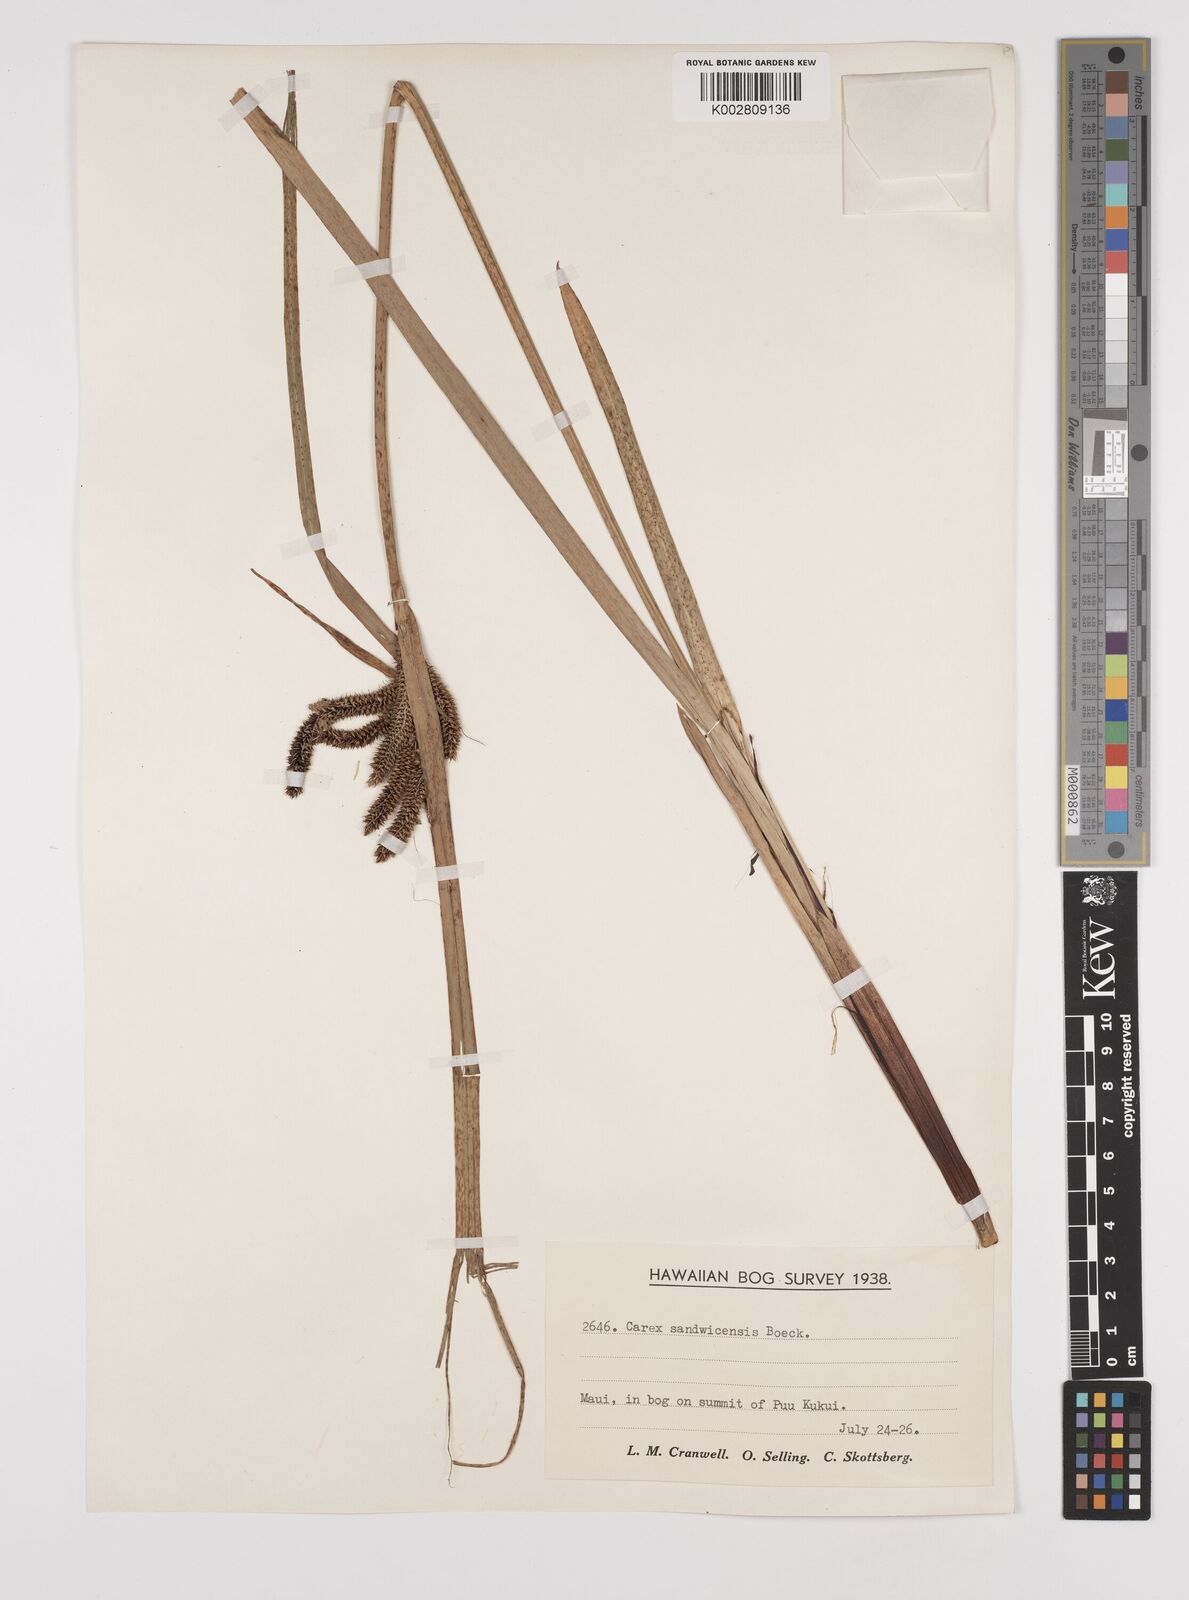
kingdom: Plantae
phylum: Tracheophyta
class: Liliopsida
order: Poales
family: Cyperaceae
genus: Carex
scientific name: Carex alligata
